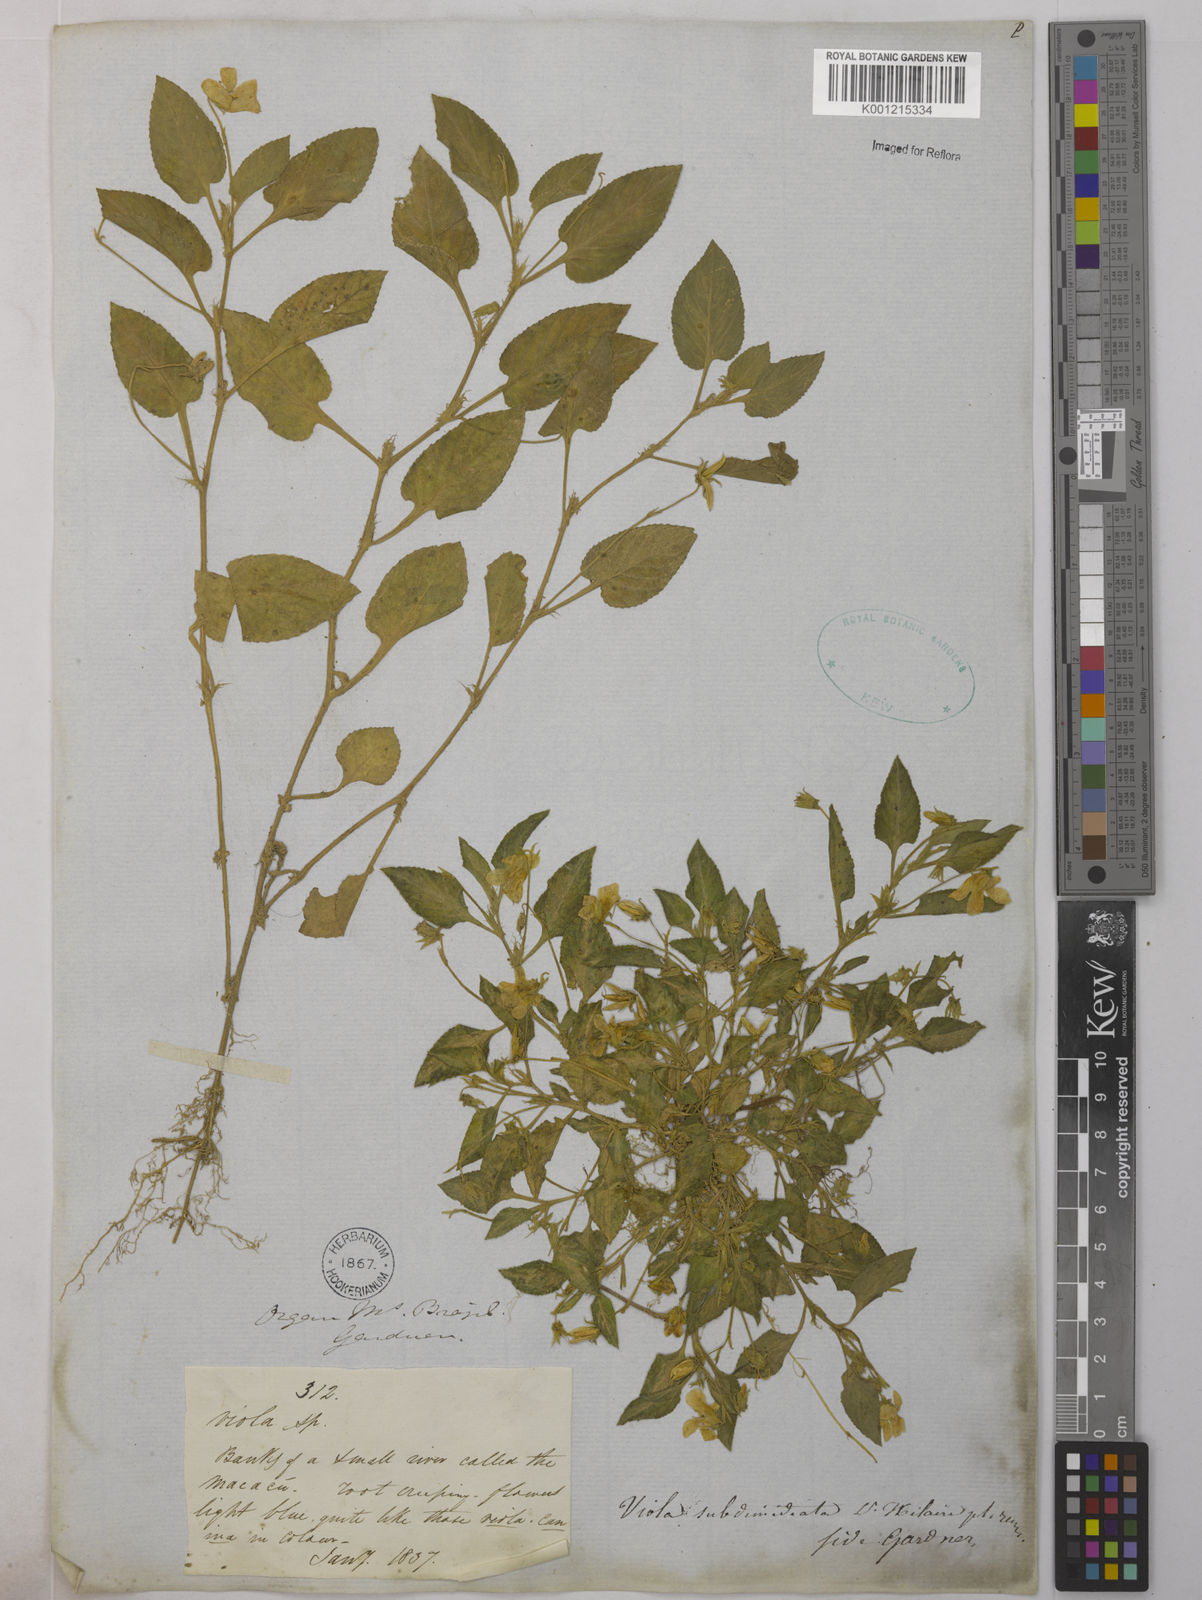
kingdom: Plantae
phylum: Tracheophyta
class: Magnoliopsida
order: Malpighiales
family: Violaceae
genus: Viola
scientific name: Viola subdimidiata
